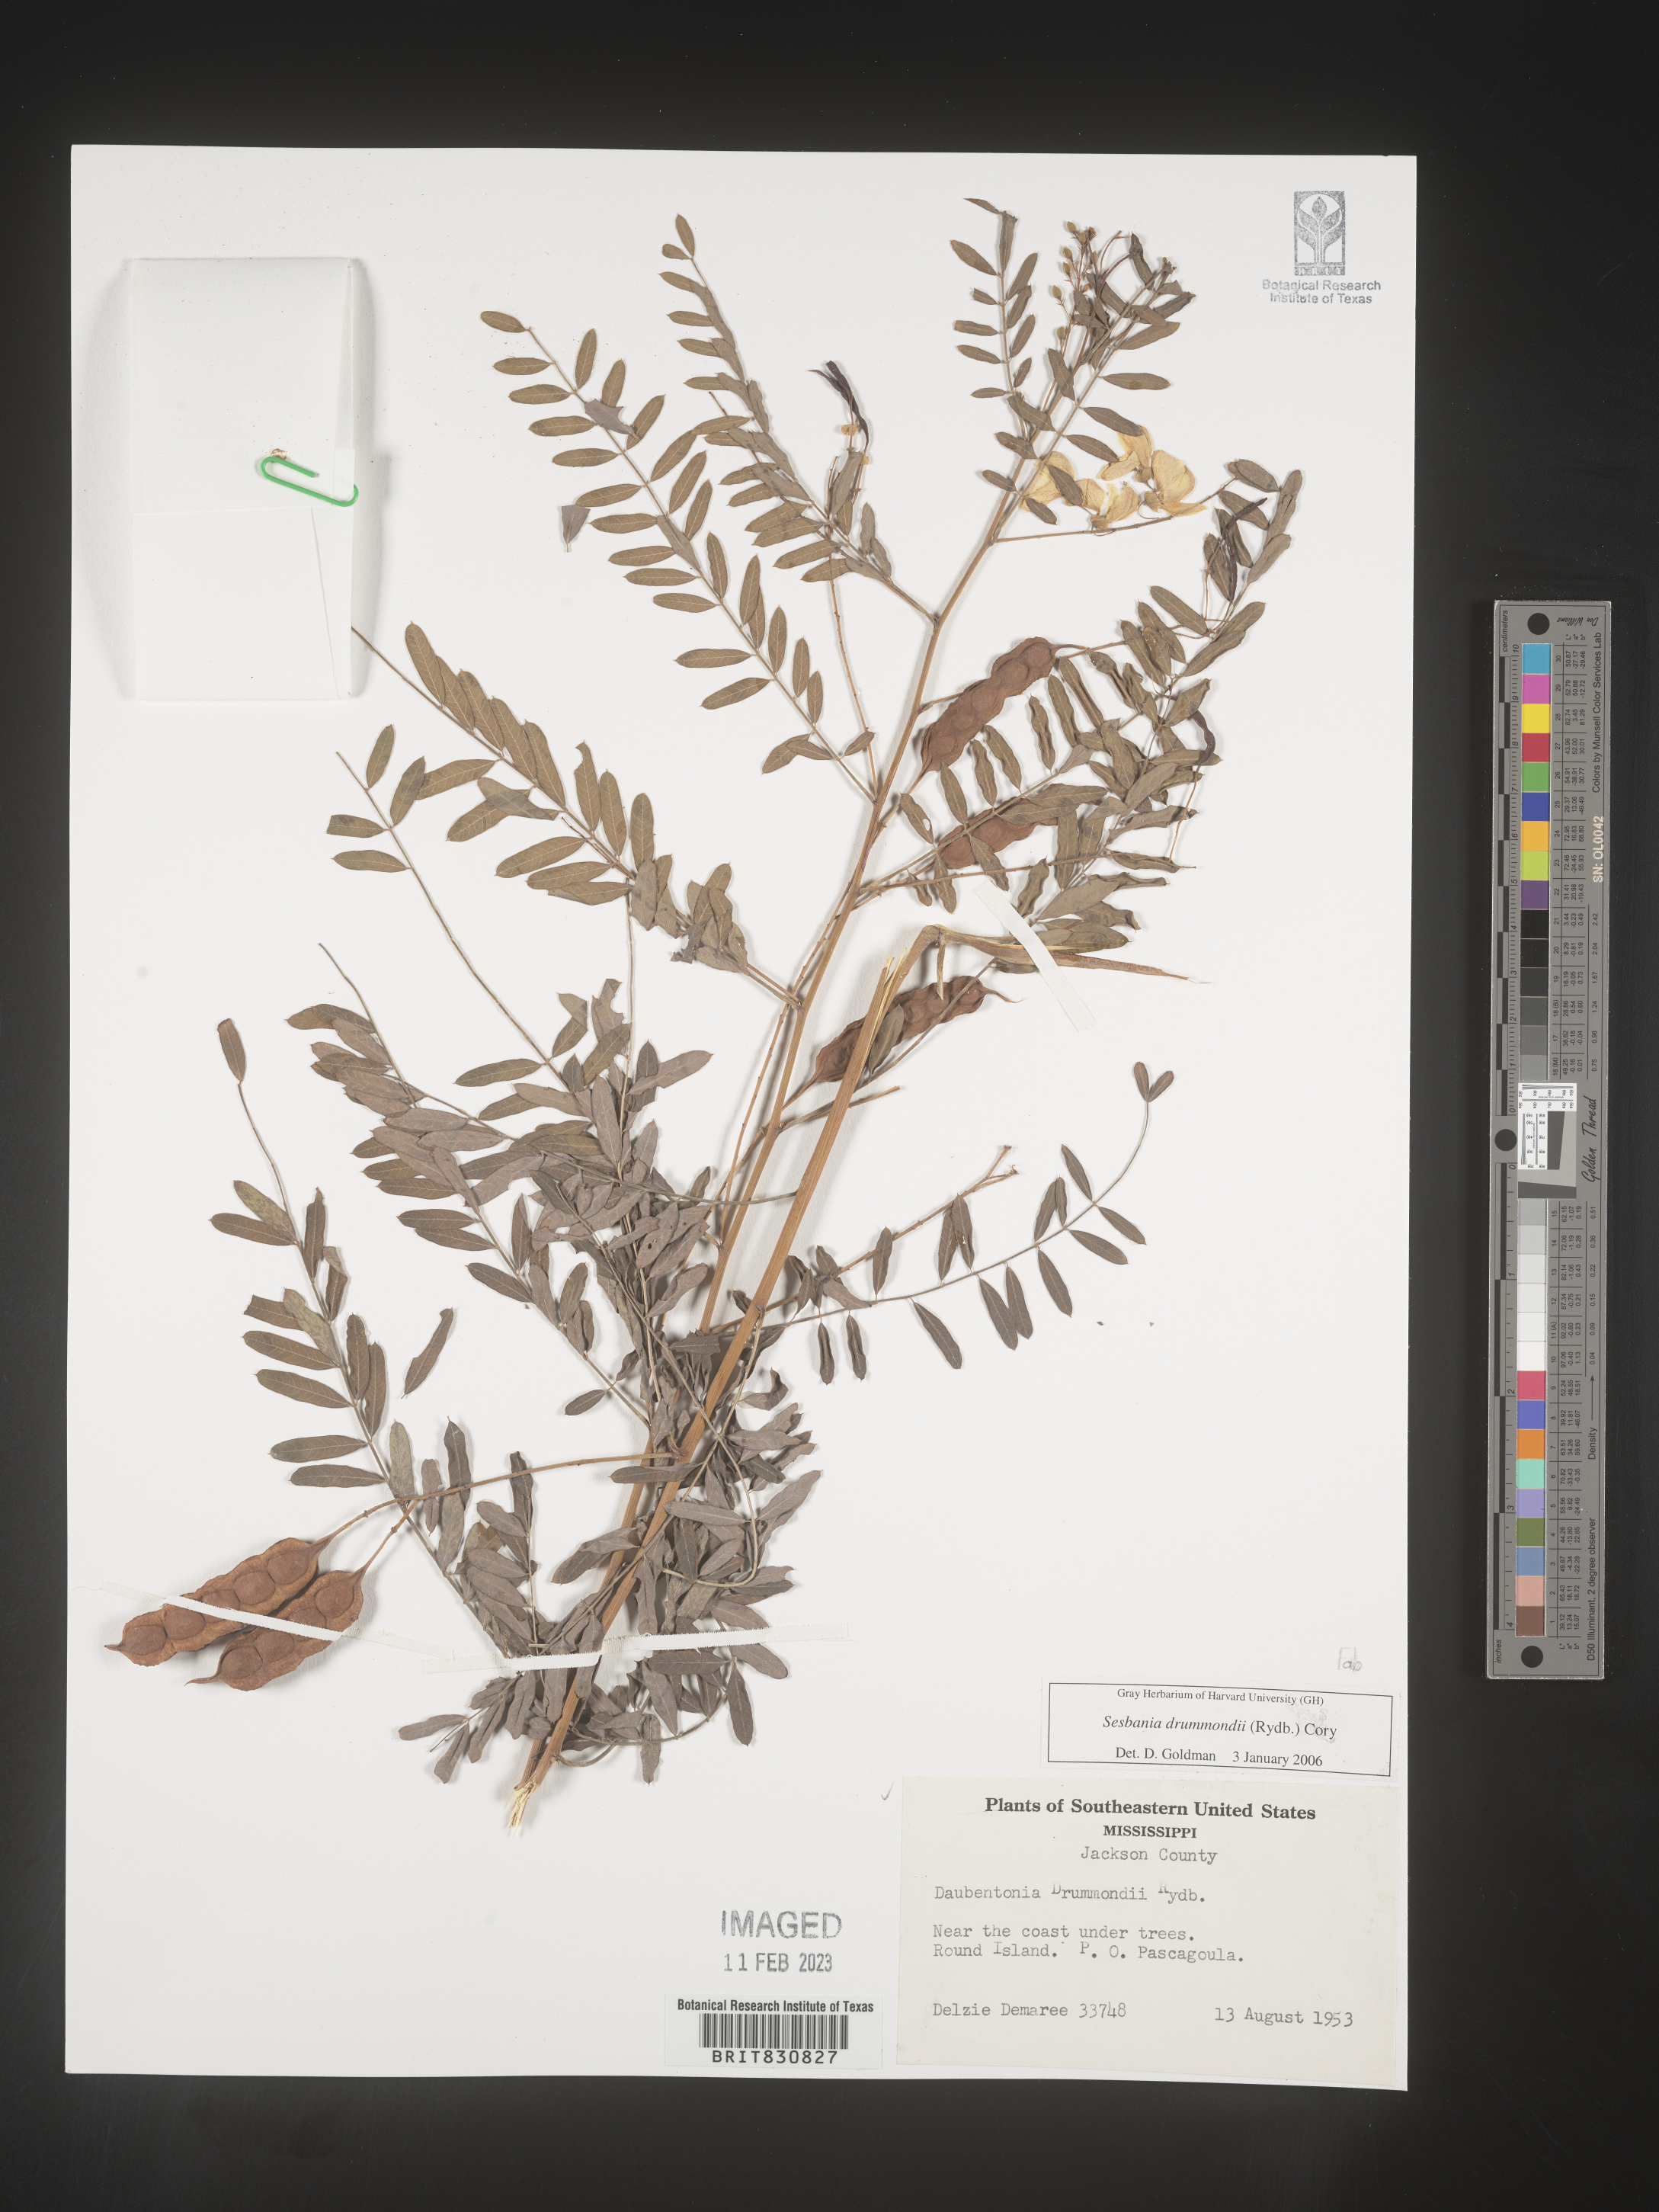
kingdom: Plantae
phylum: Tracheophyta
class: Magnoliopsida
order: Fabales
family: Fabaceae
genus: Sesbania
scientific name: Sesbania drummondii
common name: Poison-bean
